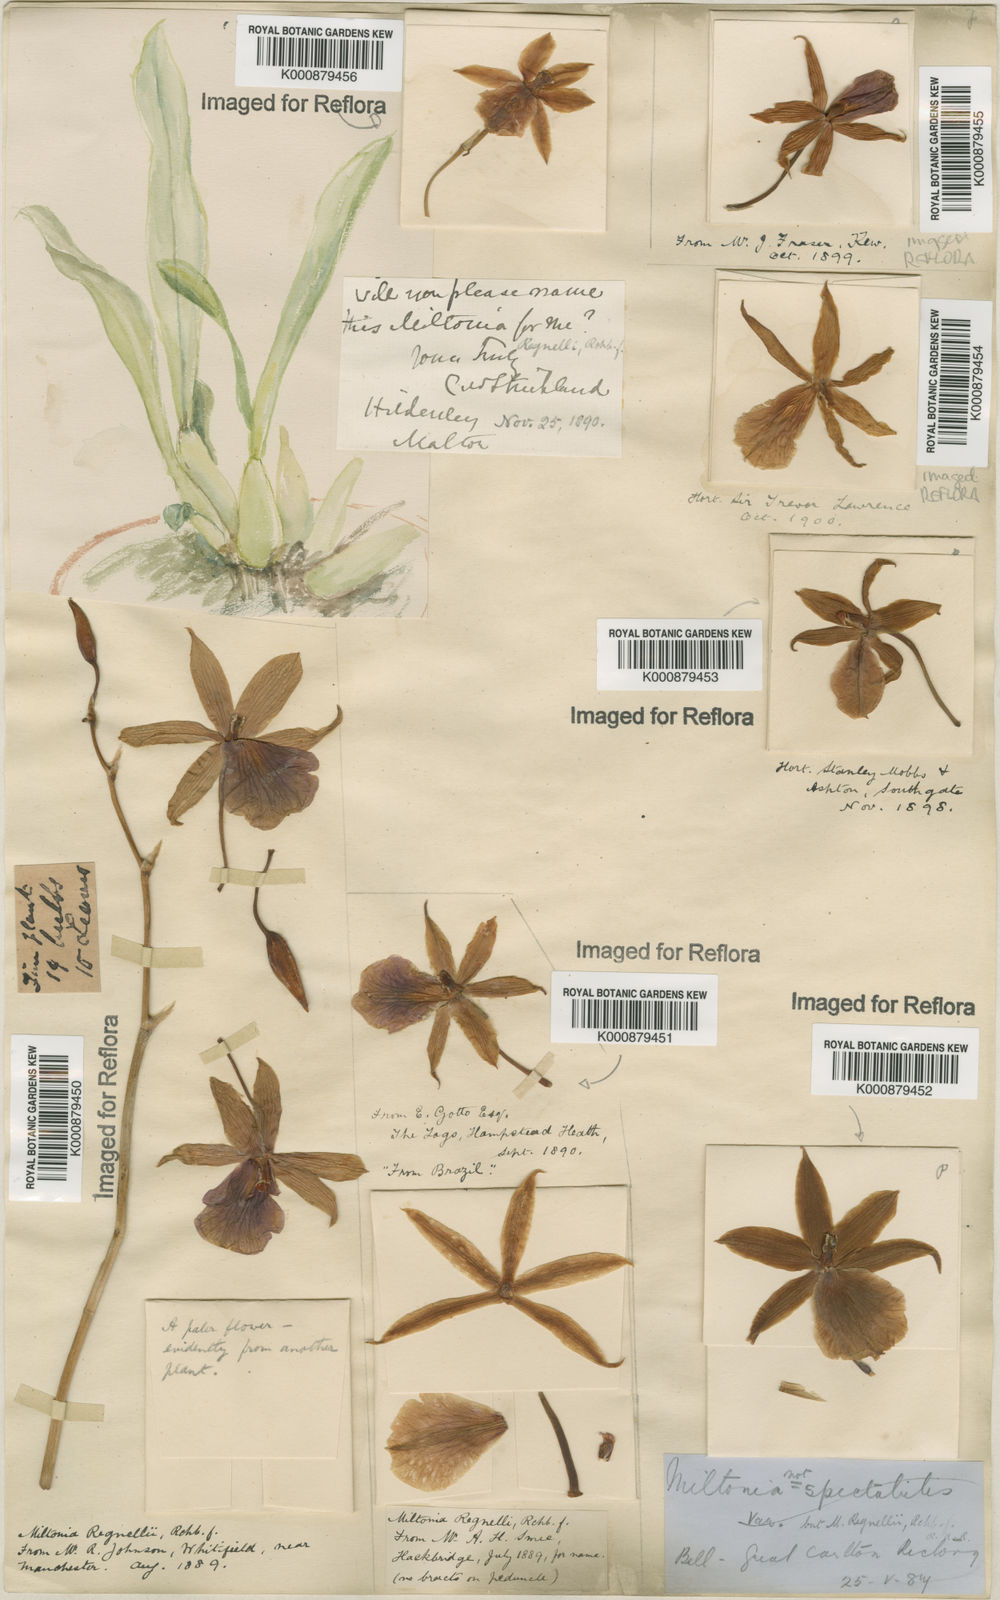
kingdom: Plantae
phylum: Tracheophyta
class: Liliopsida
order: Asparagales
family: Orchidaceae
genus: Miltonia
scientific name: Miltonia regnellii
